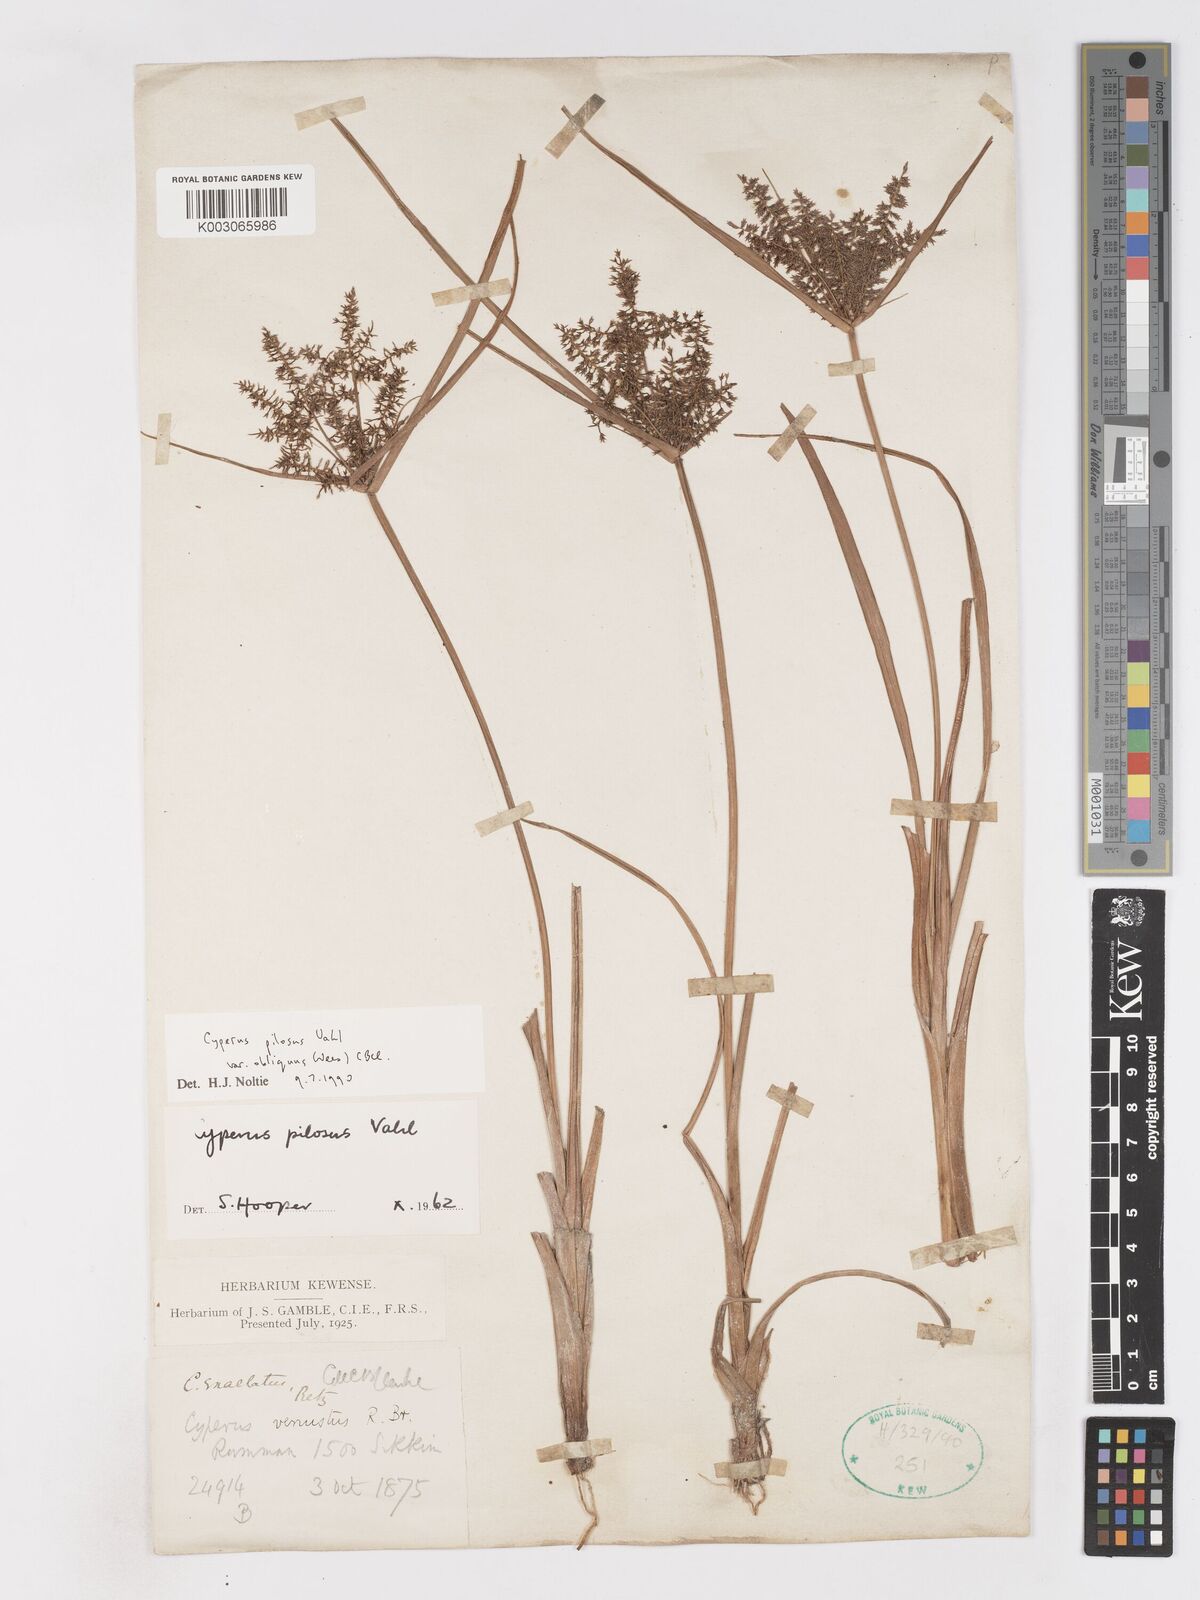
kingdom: Plantae
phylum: Tracheophyta
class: Liliopsida
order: Poales
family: Cyperaceae
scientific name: Cyperaceae
